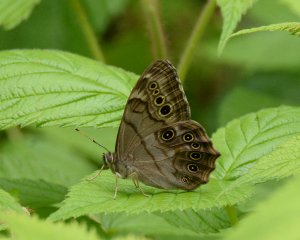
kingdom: Animalia
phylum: Arthropoda
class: Insecta
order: Lepidoptera
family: Nymphalidae
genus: Lethe
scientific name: Lethe anthedon
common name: Northern Pearly-Eye
